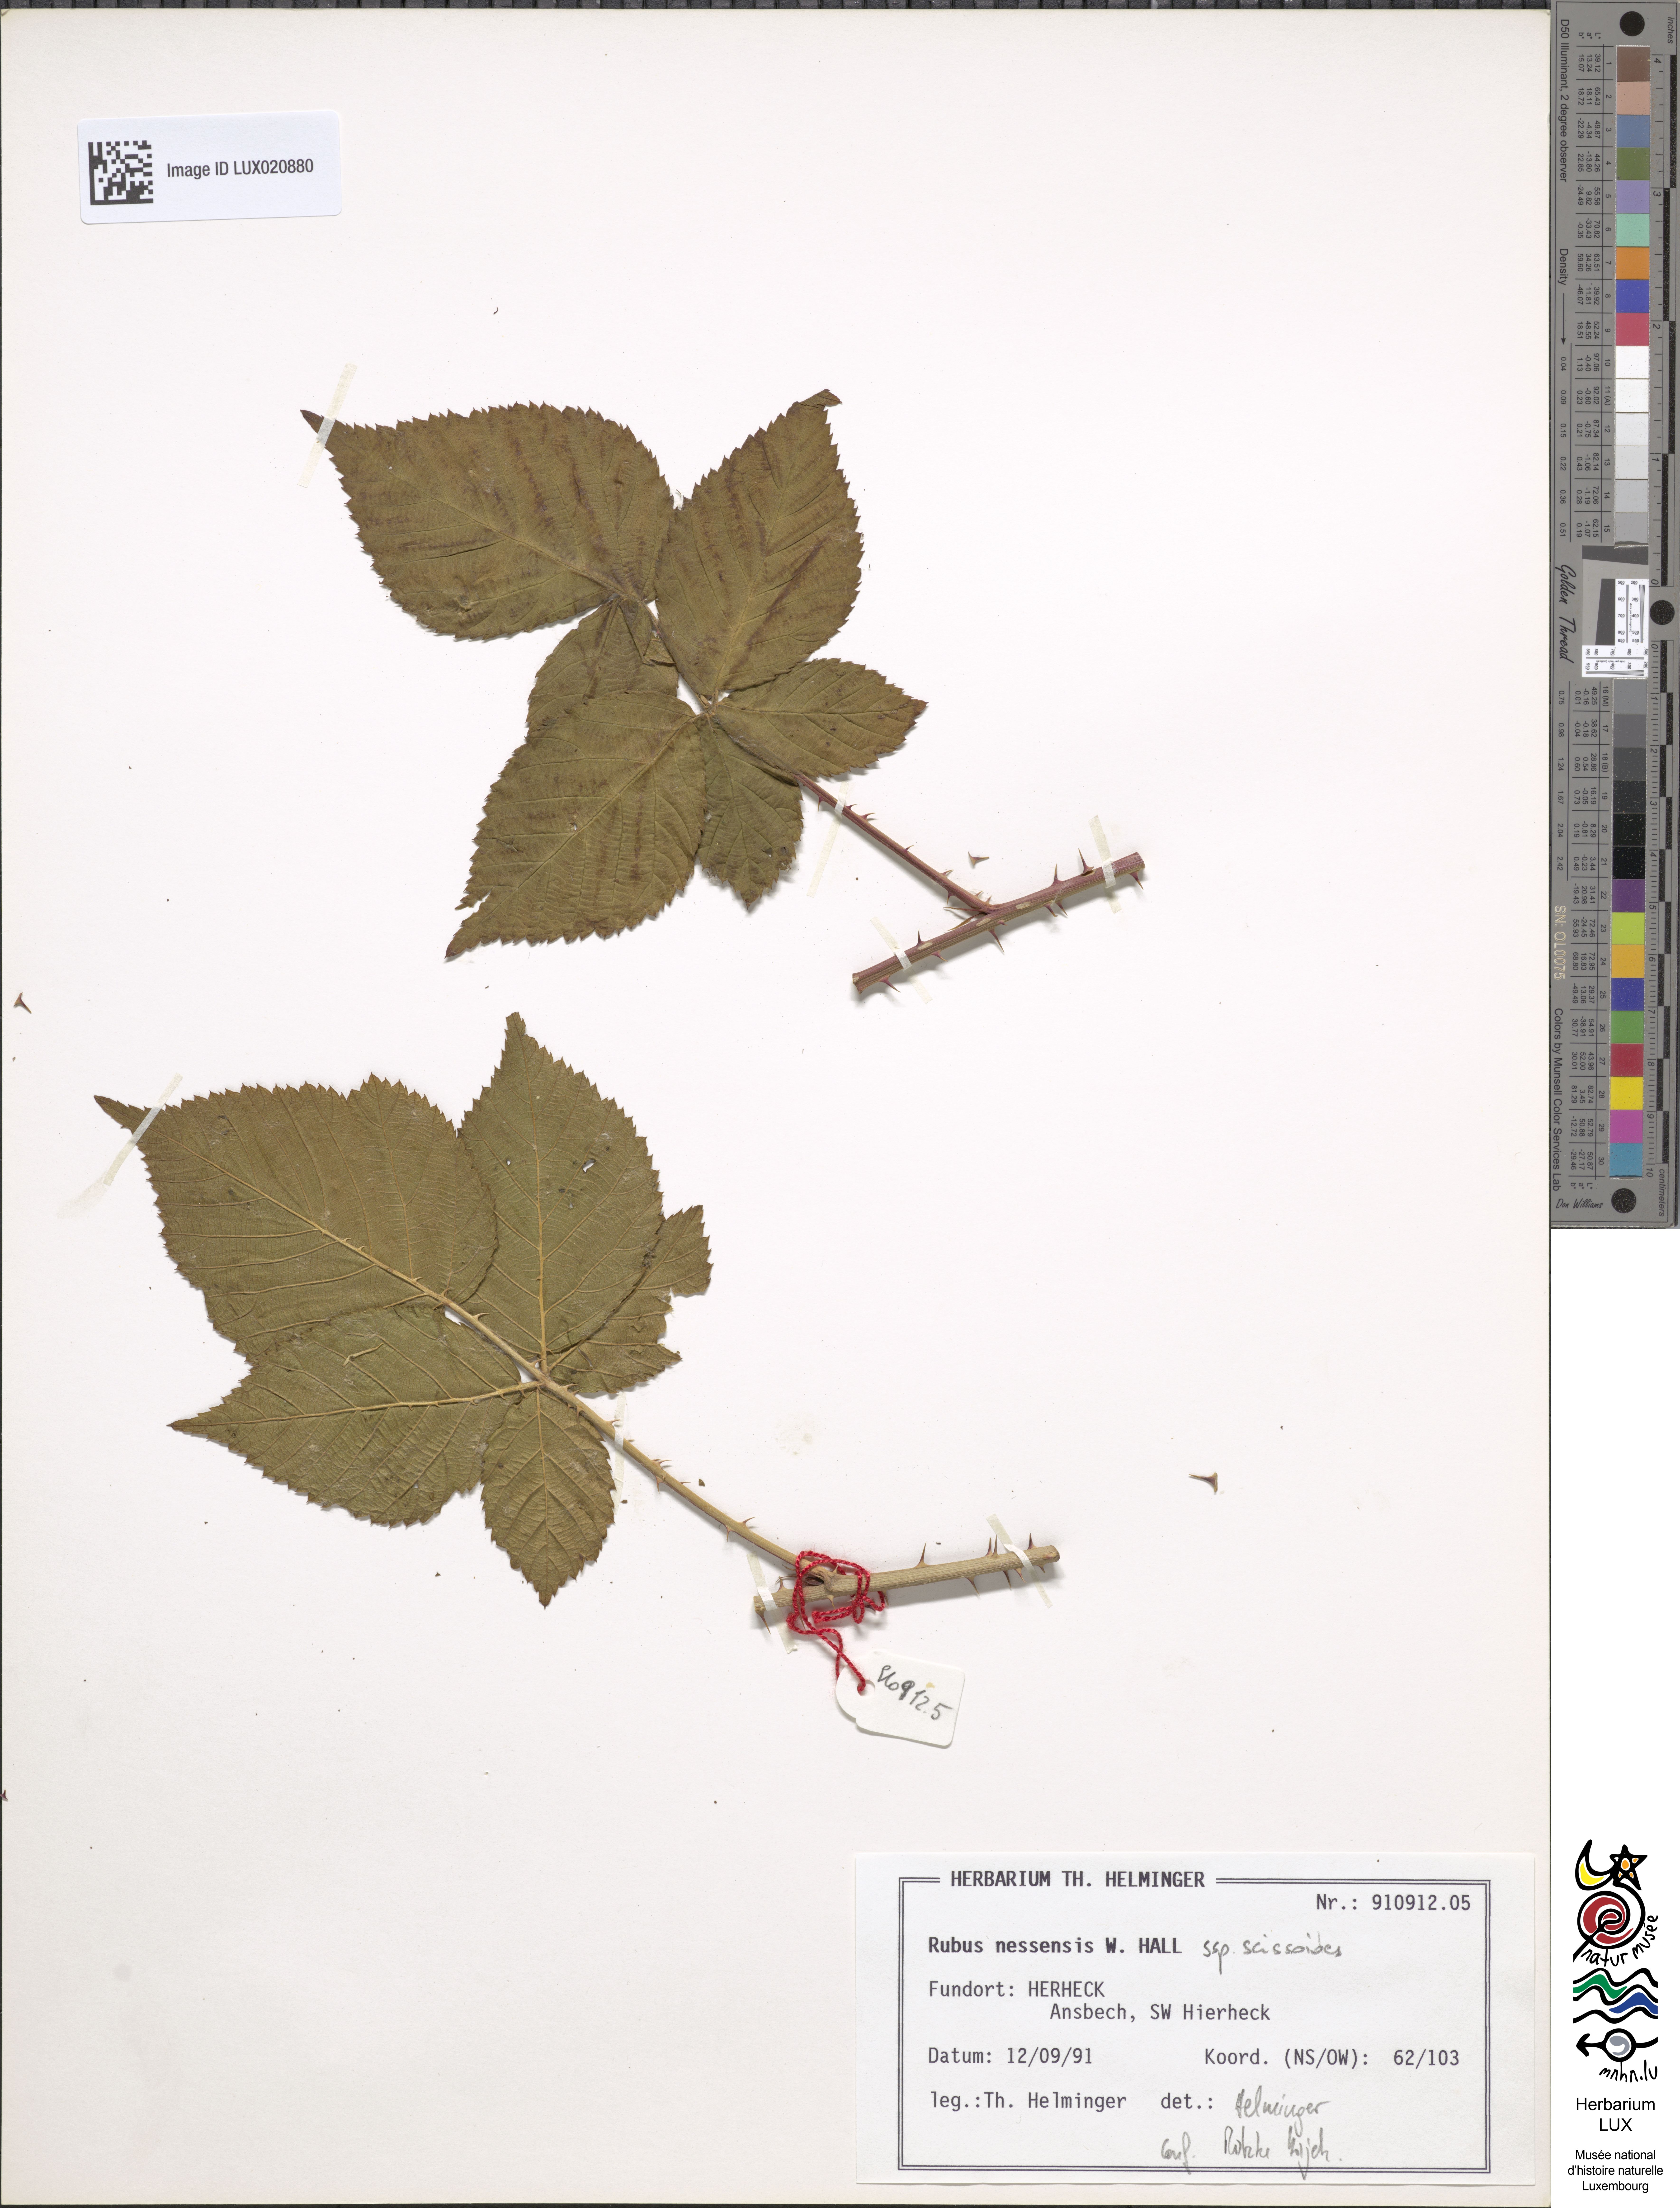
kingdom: Plantae
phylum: Tracheophyta
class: Magnoliopsida
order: Rosales
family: Rosaceae
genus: Rubus
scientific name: Rubus scissoides
